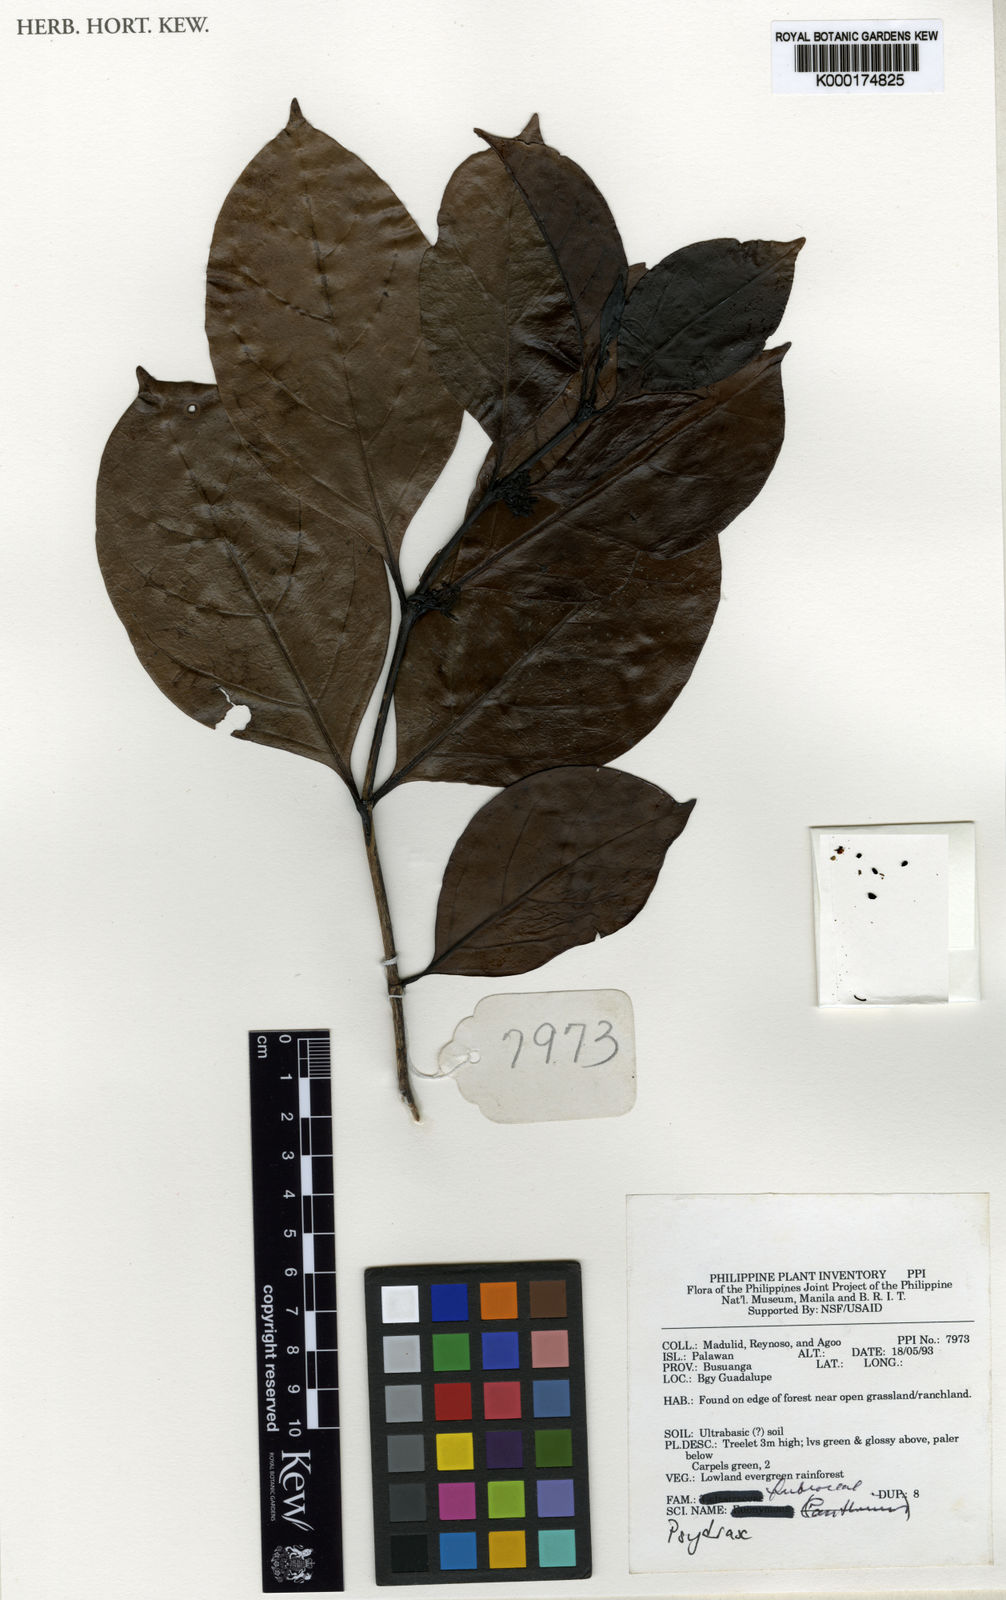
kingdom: Plantae
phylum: Tracheophyta
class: Magnoliopsida
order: Gentianales
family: Rubiaceae
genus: Psydrax
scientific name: Psydrax
